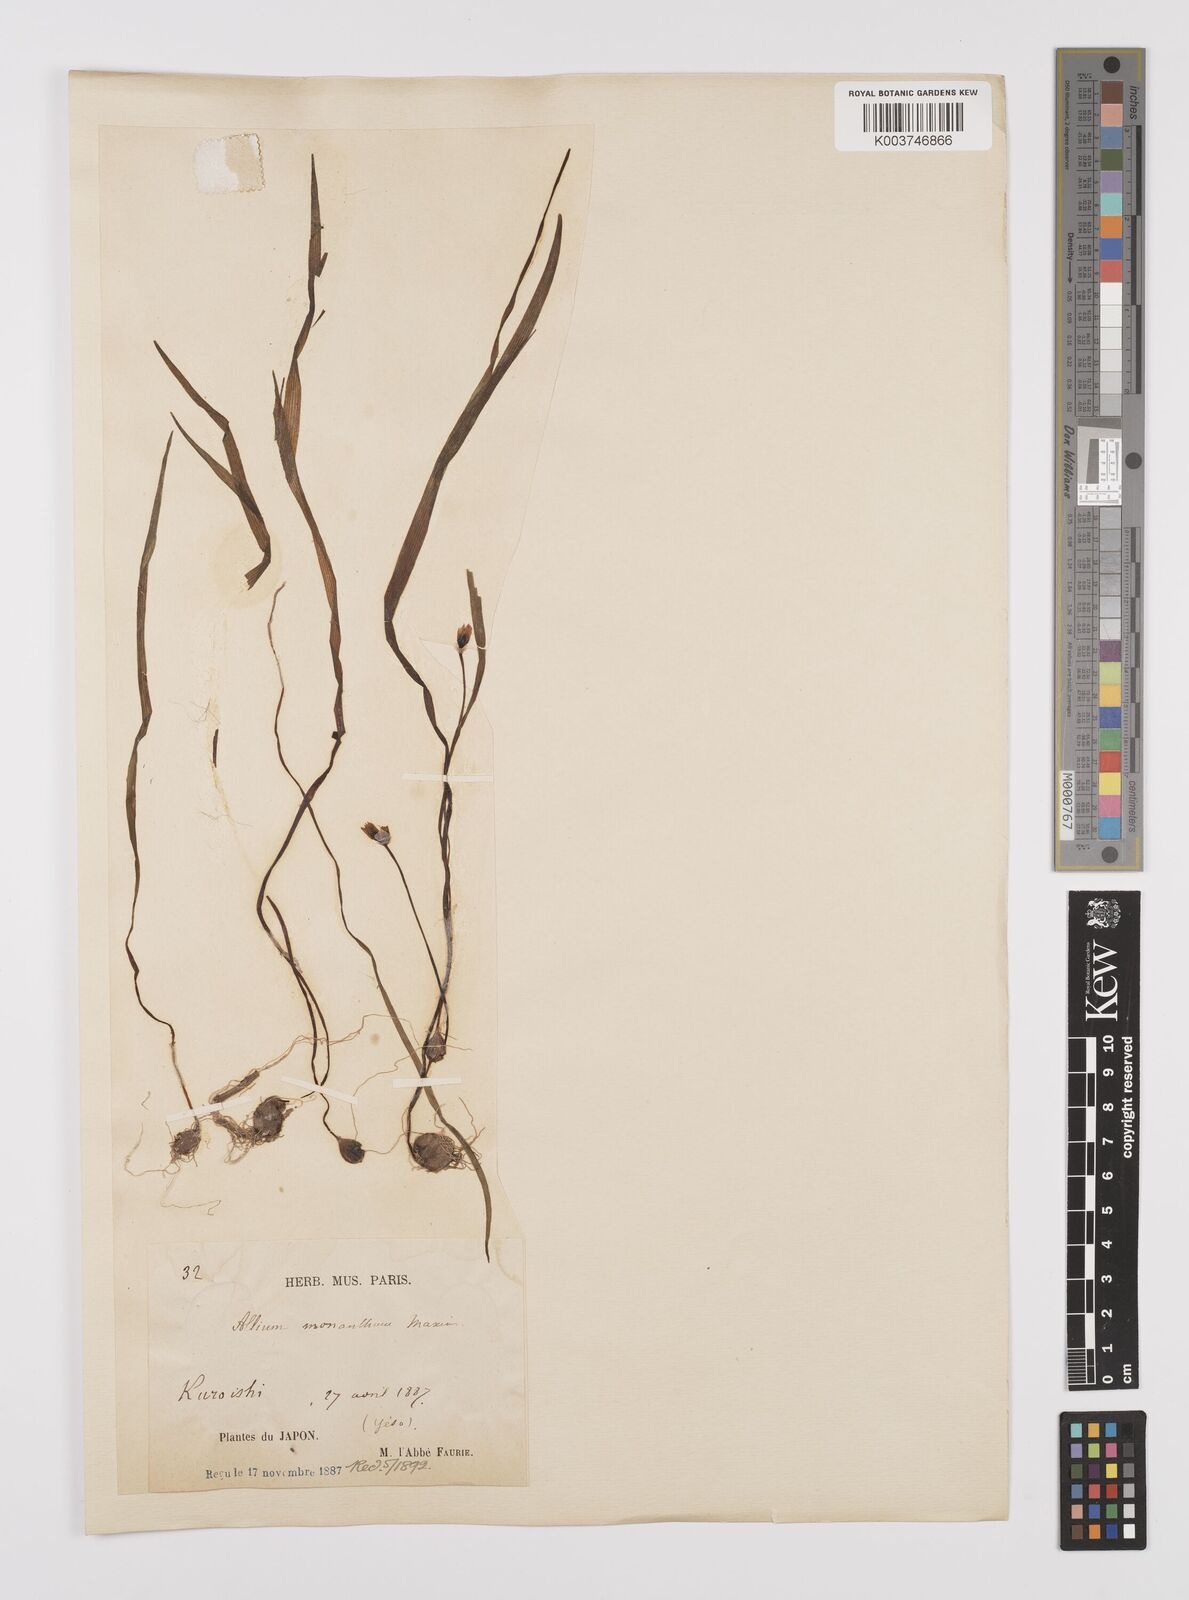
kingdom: Plantae
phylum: Tracheophyta
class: Liliopsida
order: Asparagales
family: Amaryllidaceae
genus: Allium
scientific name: Allium monanthum
